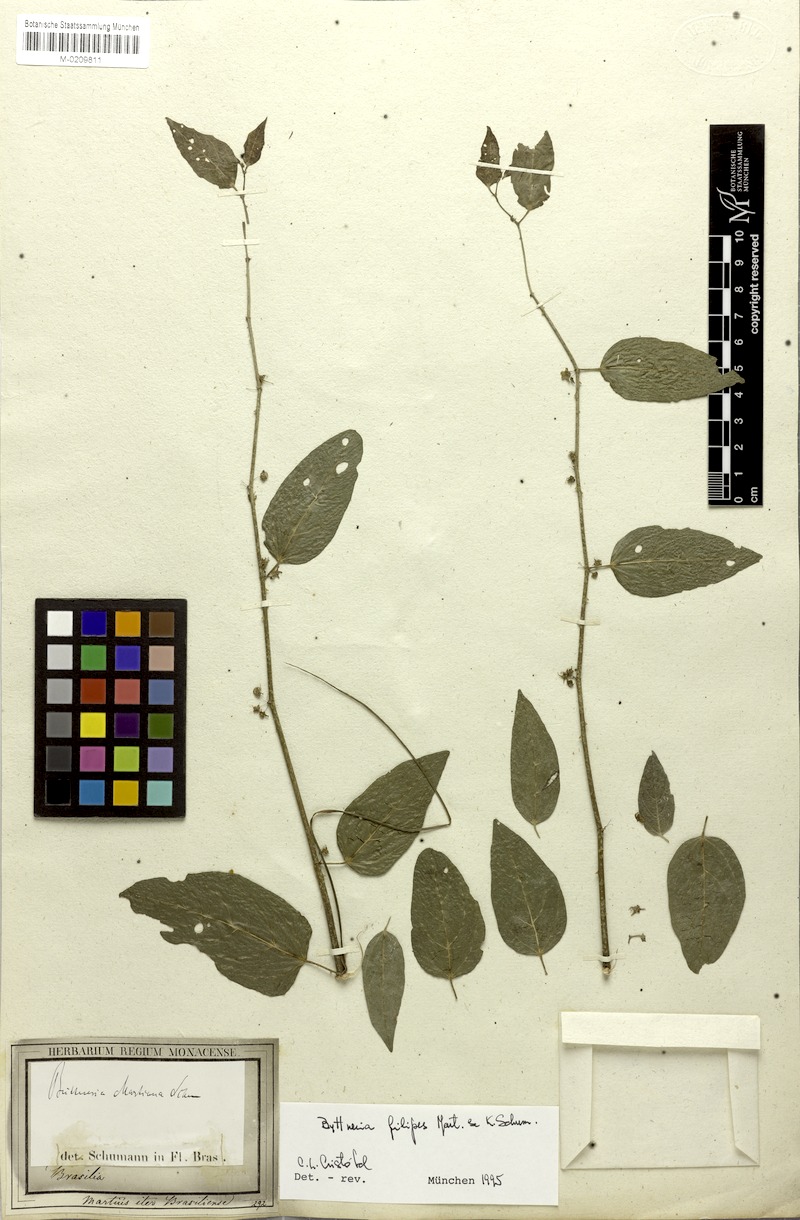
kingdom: Plantae
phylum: Tracheophyta
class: Magnoliopsida
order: Malvales
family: Malvaceae
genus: Byttneria
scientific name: Byttneria filipes
